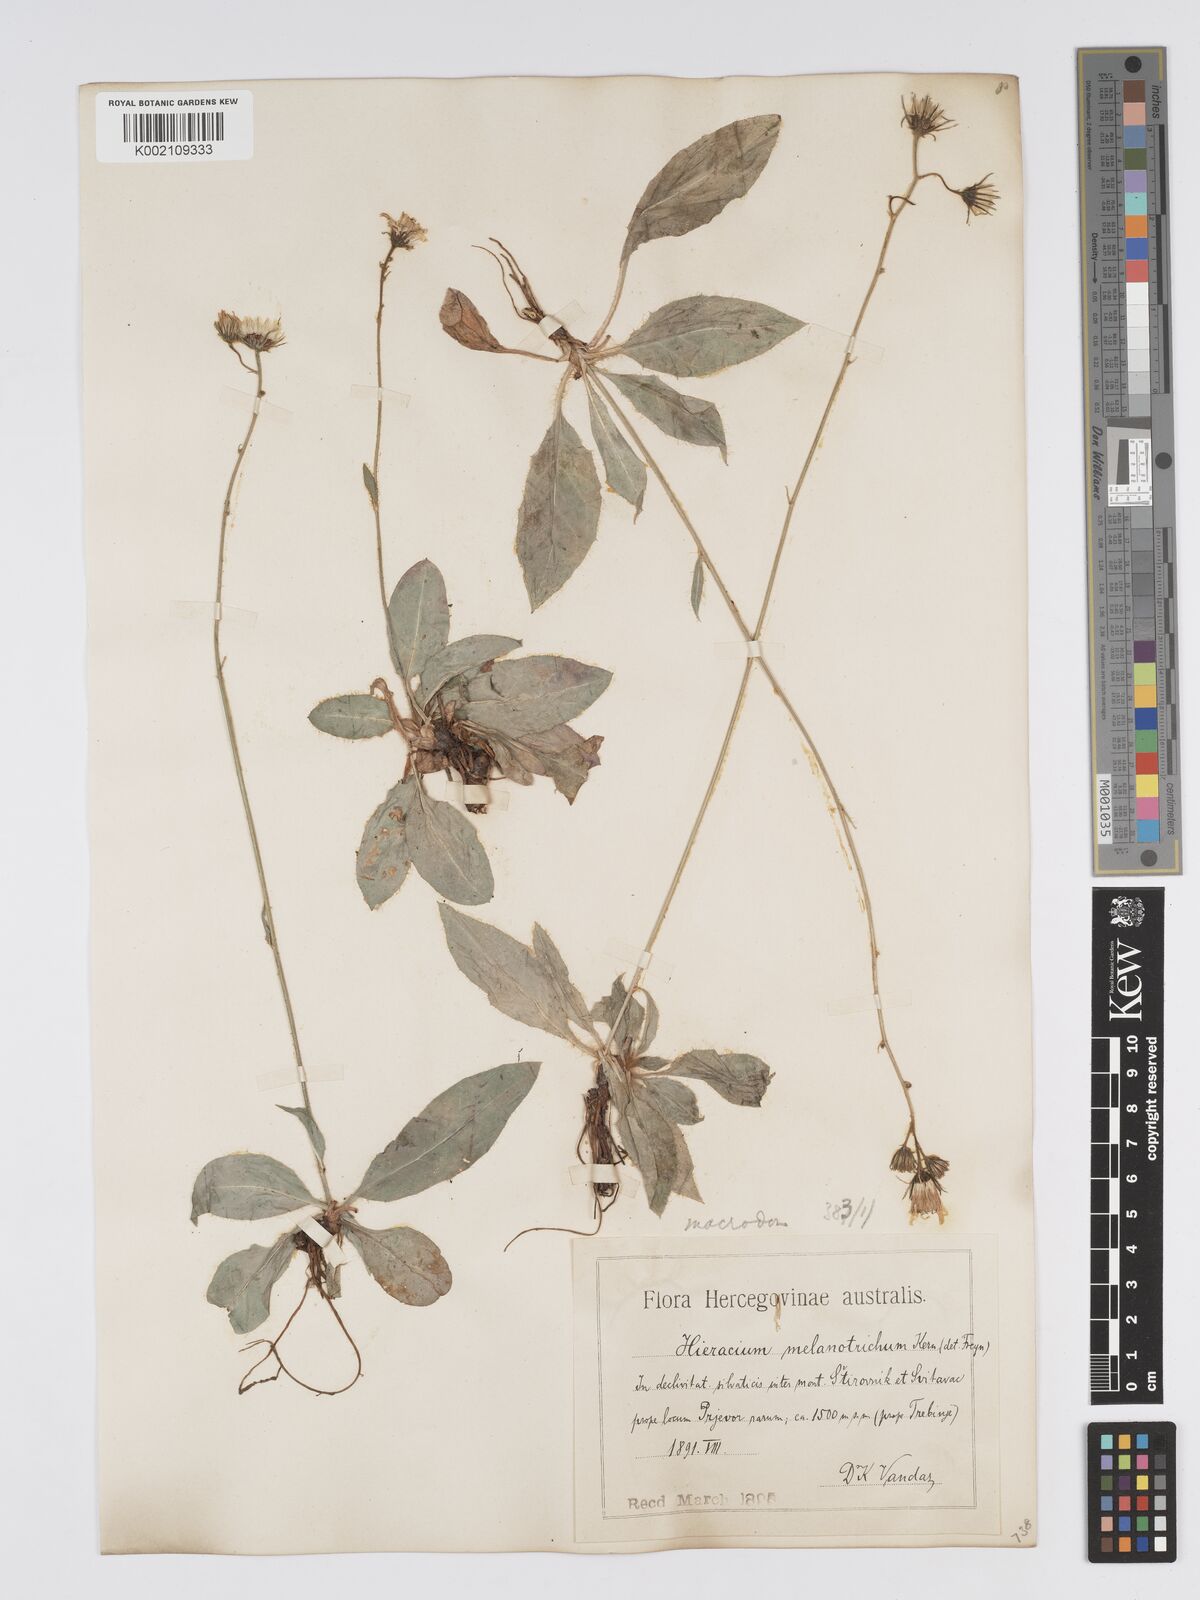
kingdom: Plantae
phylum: Tracheophyta
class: Magnoliopsida
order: Asterales
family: Asteraceae
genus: Hieracium
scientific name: Hieracium macrodon
